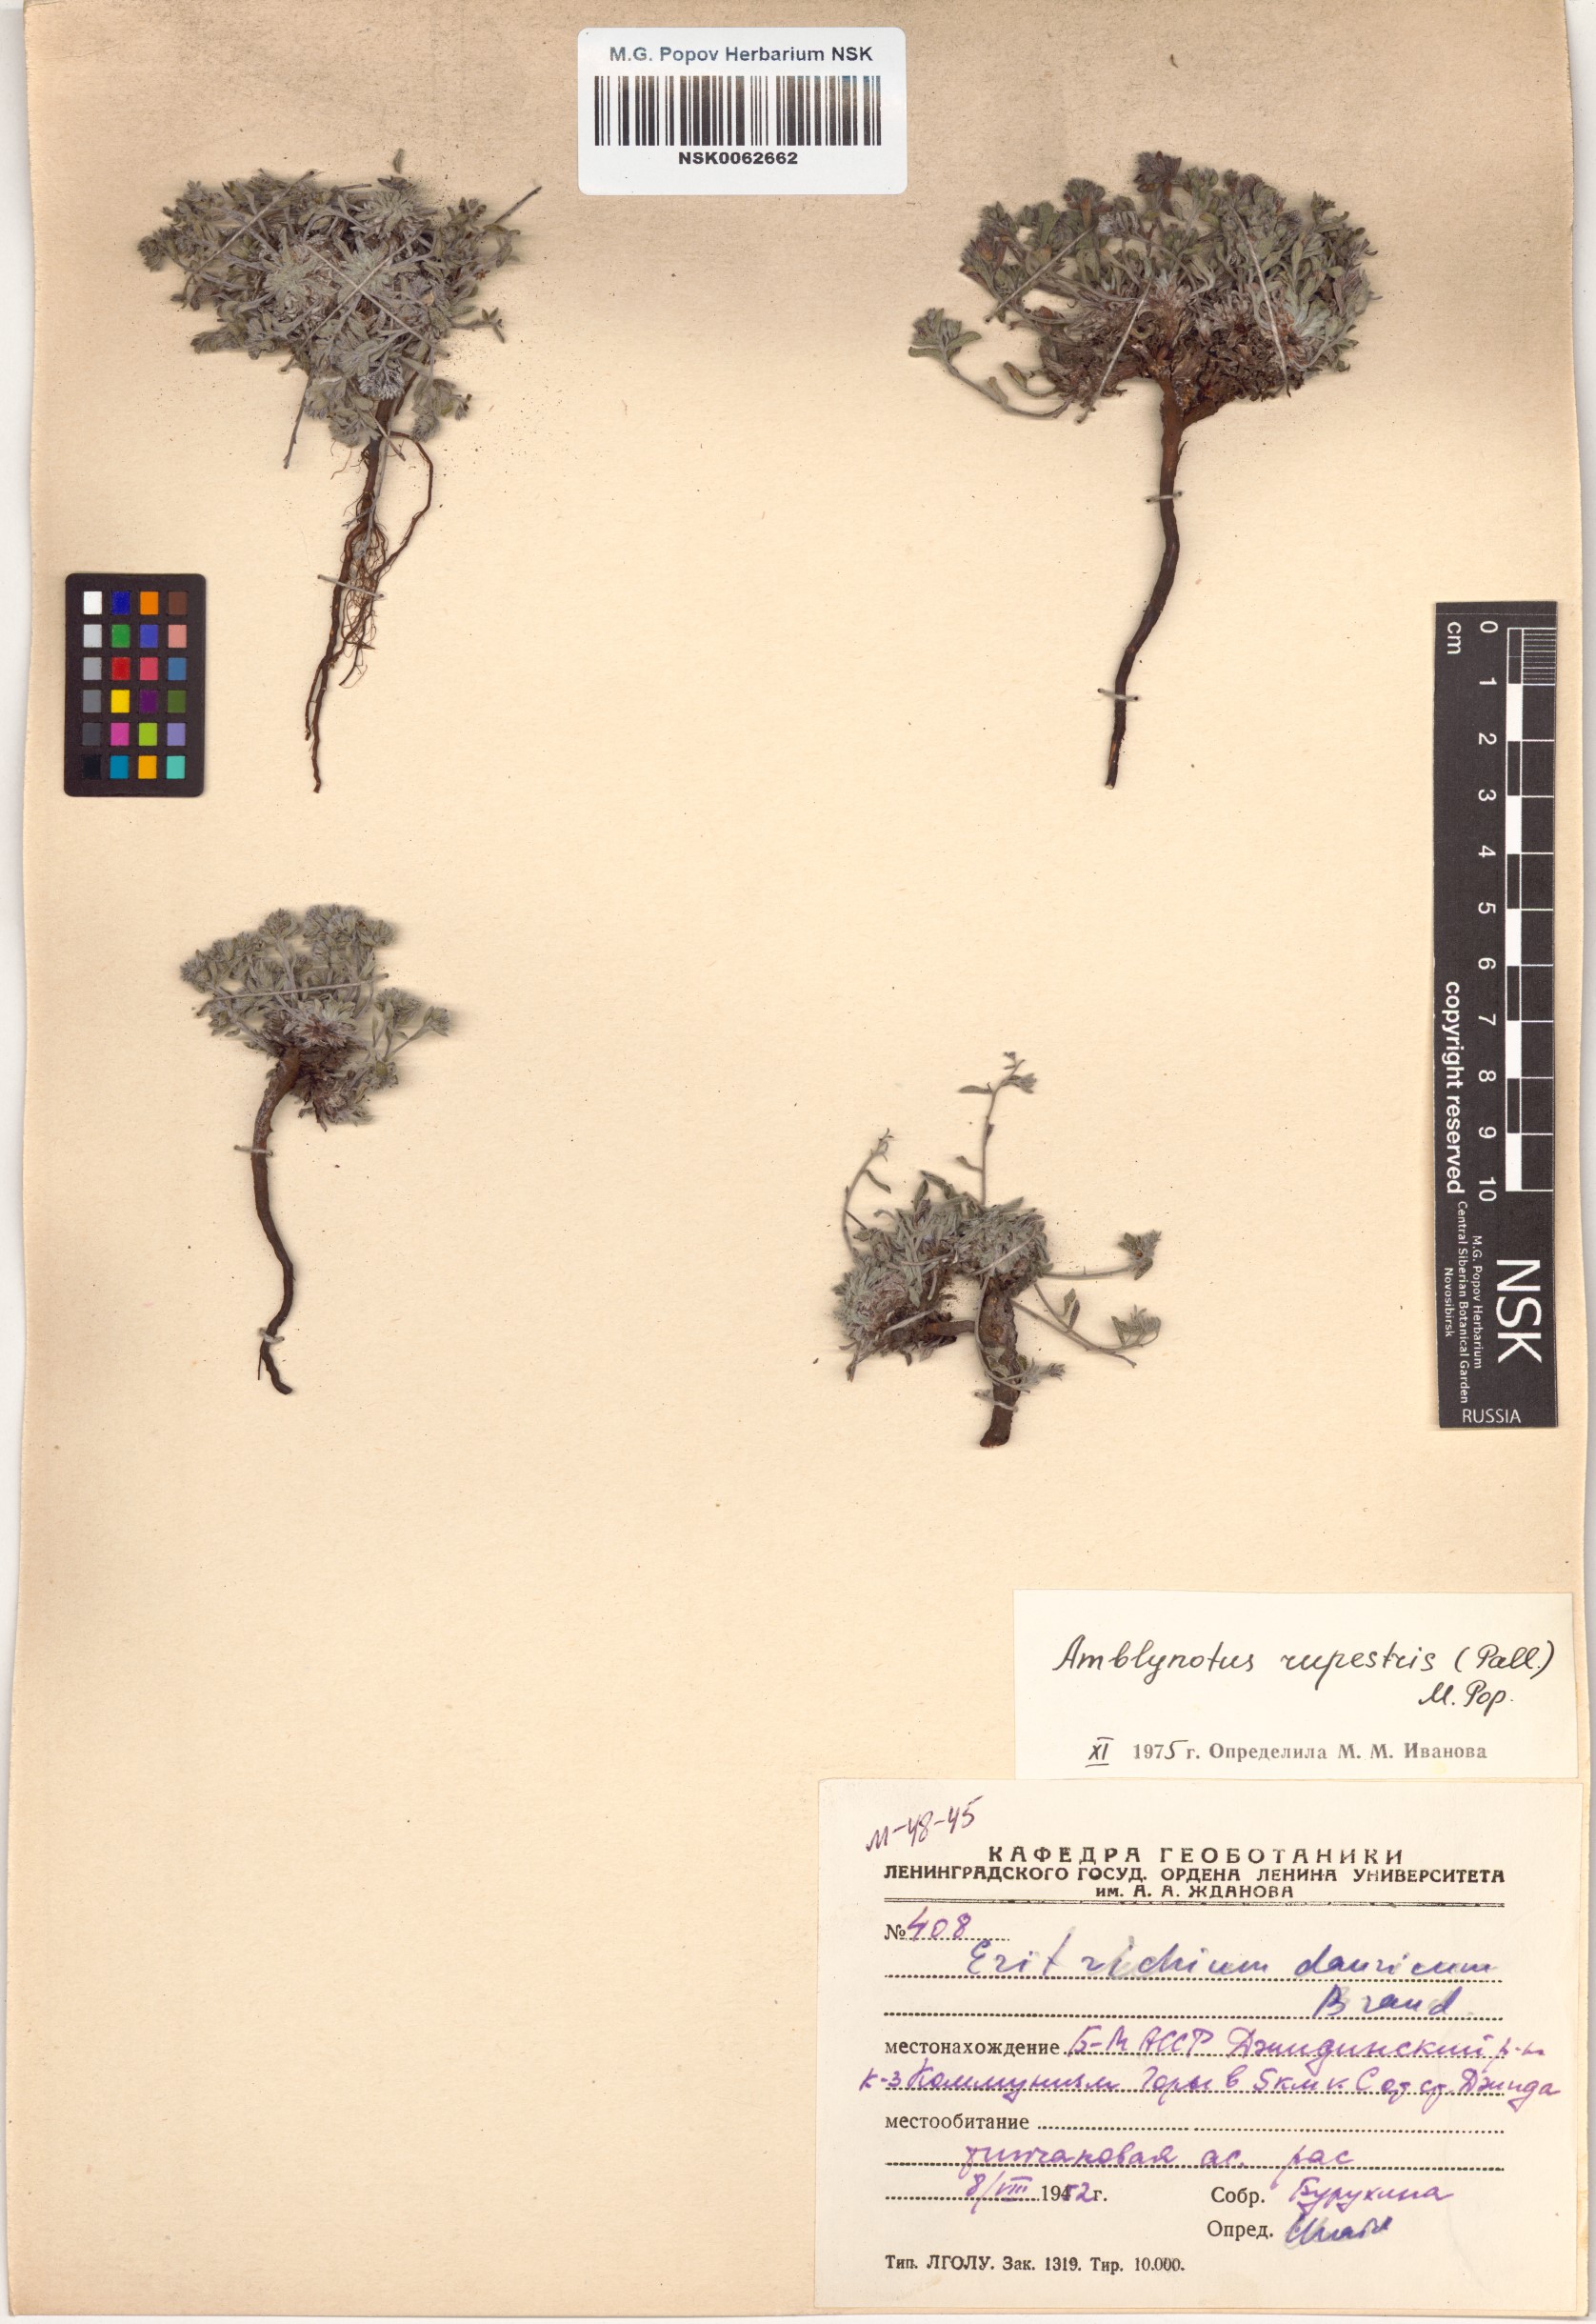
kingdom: Plantae
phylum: Tracheophyta
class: Magnoliopsida
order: Boraginales
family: Boraginaceae
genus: Eritrichium
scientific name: Eritrichium rupestre
